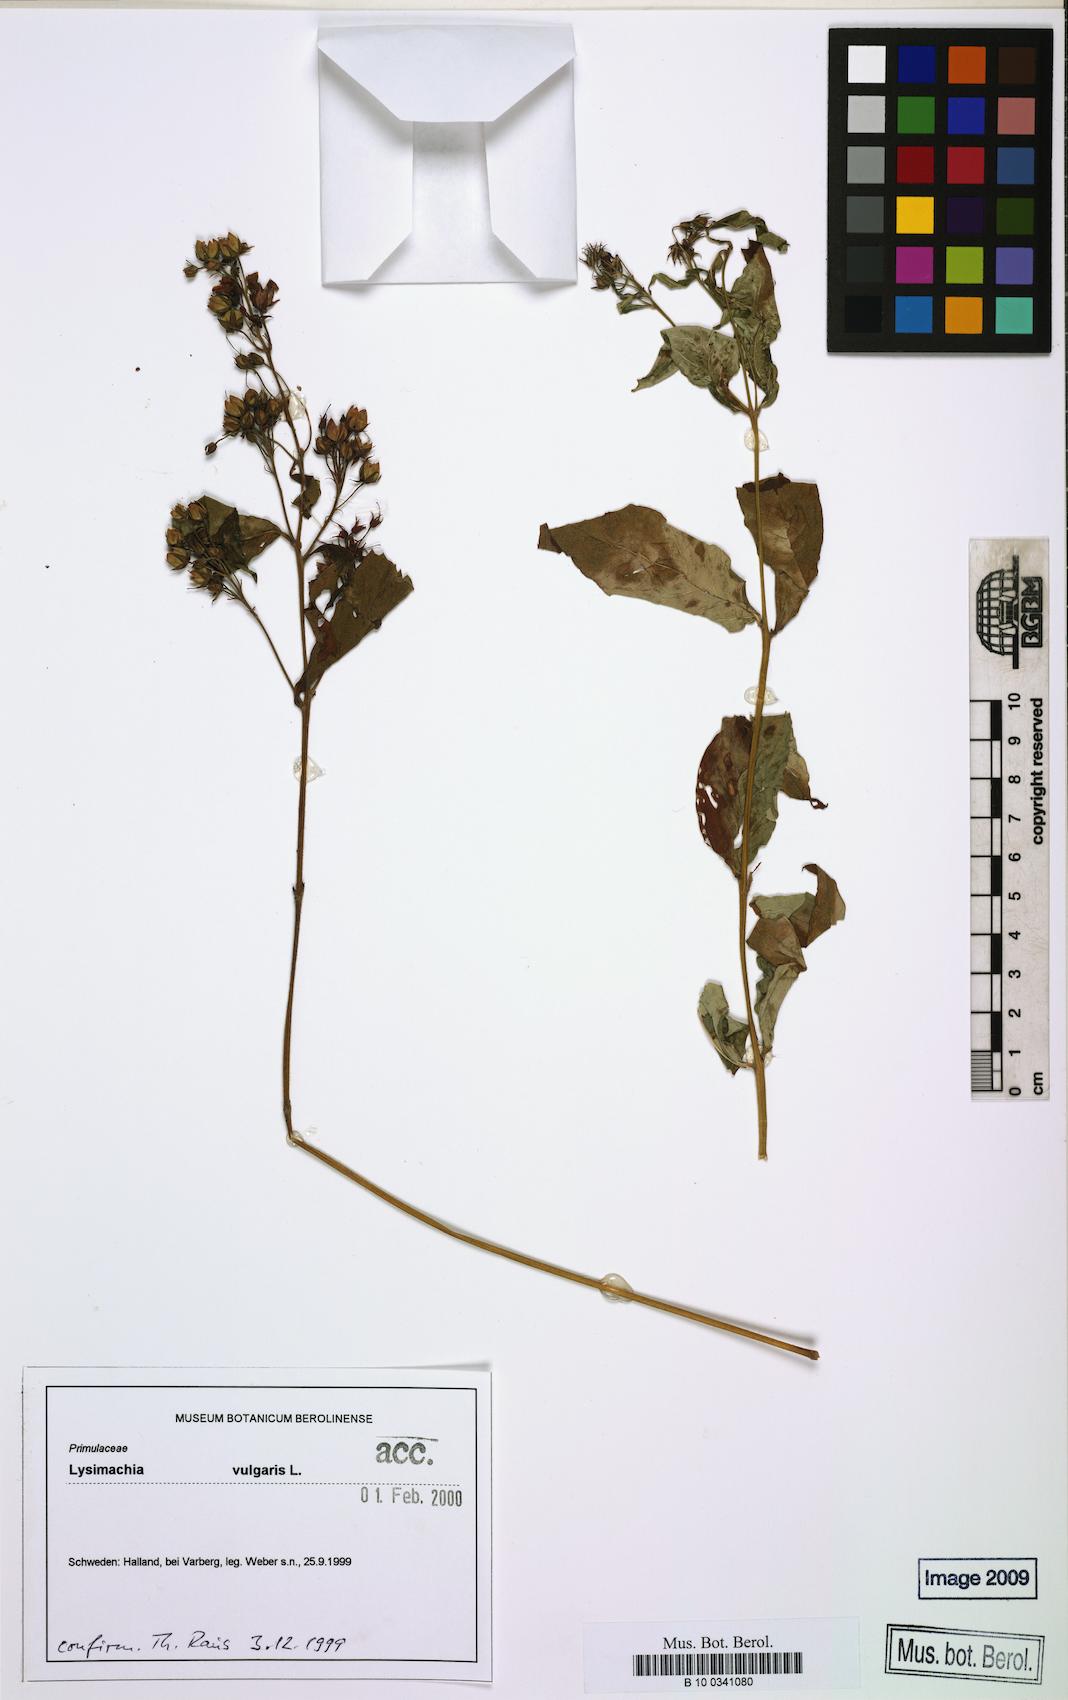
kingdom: Plantae
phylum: Tracheophyta
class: Magnoliopsida
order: Ericales
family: Primulaceae
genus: Lysimachia
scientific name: Lysimachia vulgaris
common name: Yellow loosestrife
